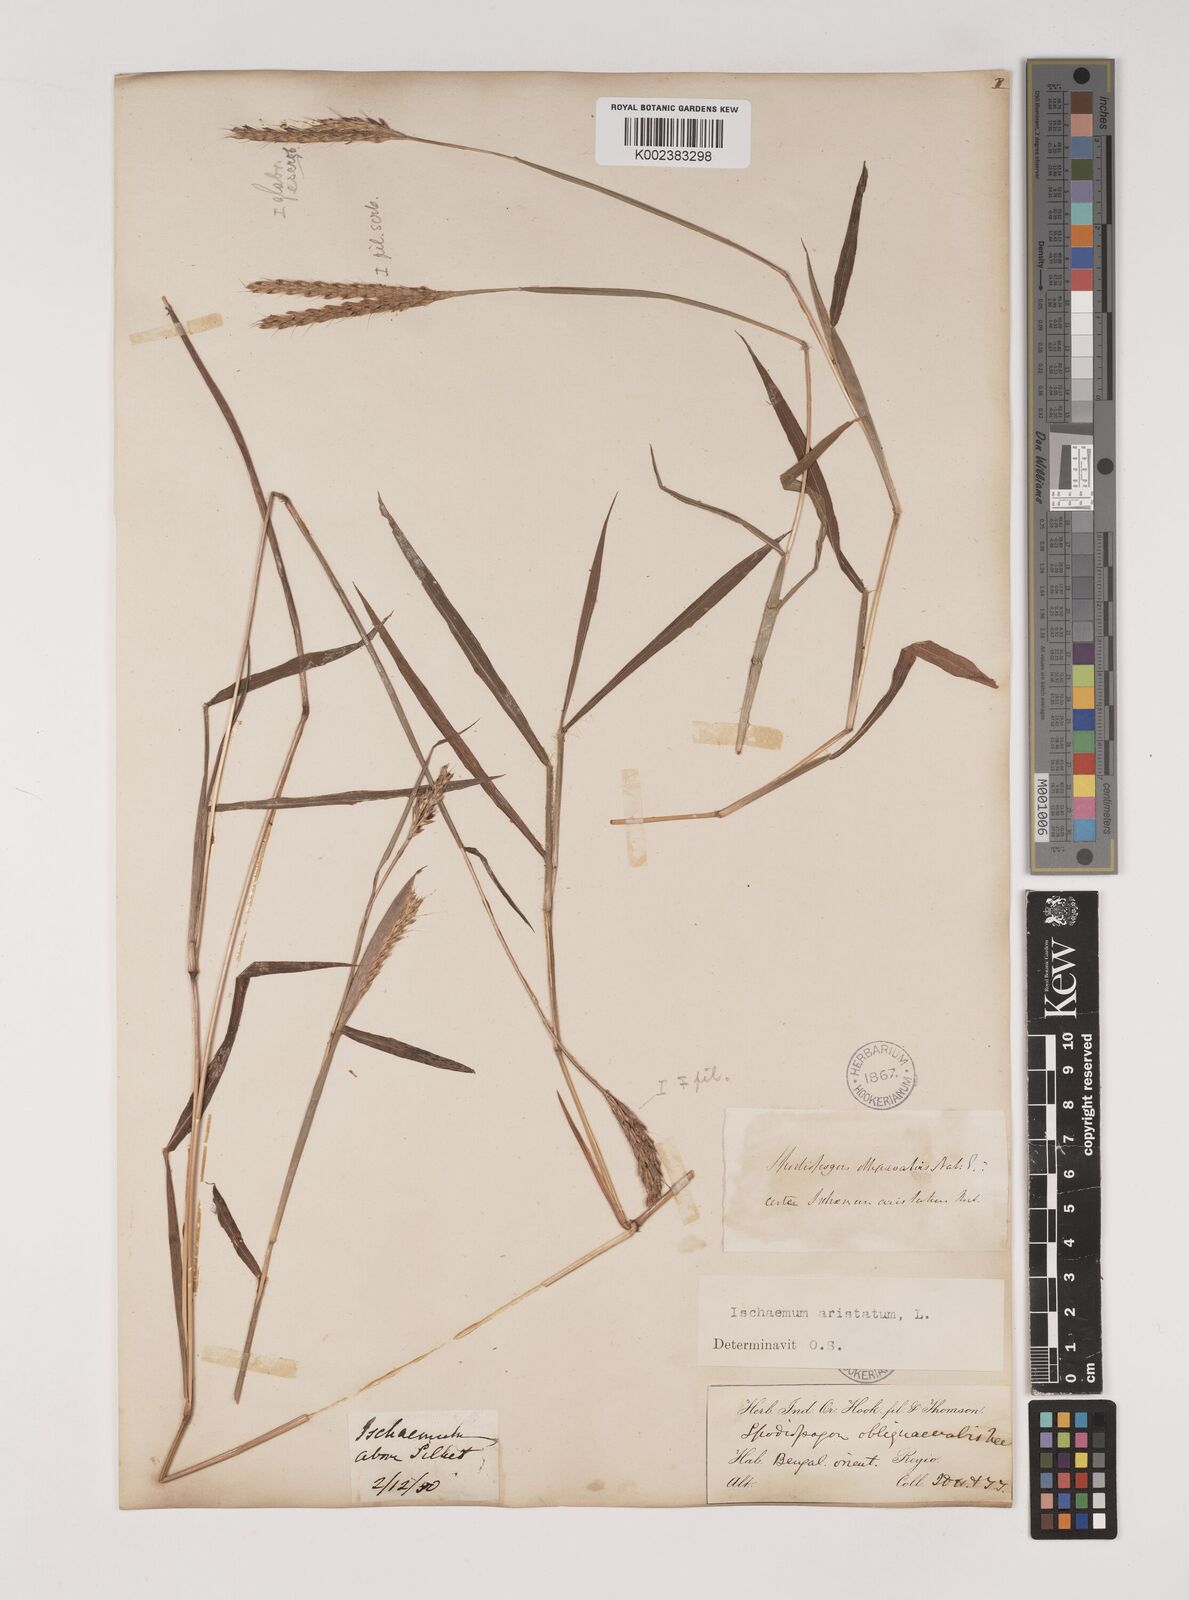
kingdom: Plantae
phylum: Tracheophyta
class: Liliopsida
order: Poales
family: Poaceae
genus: Polytrias
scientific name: Polytrias indica
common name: Indian murainagrass
